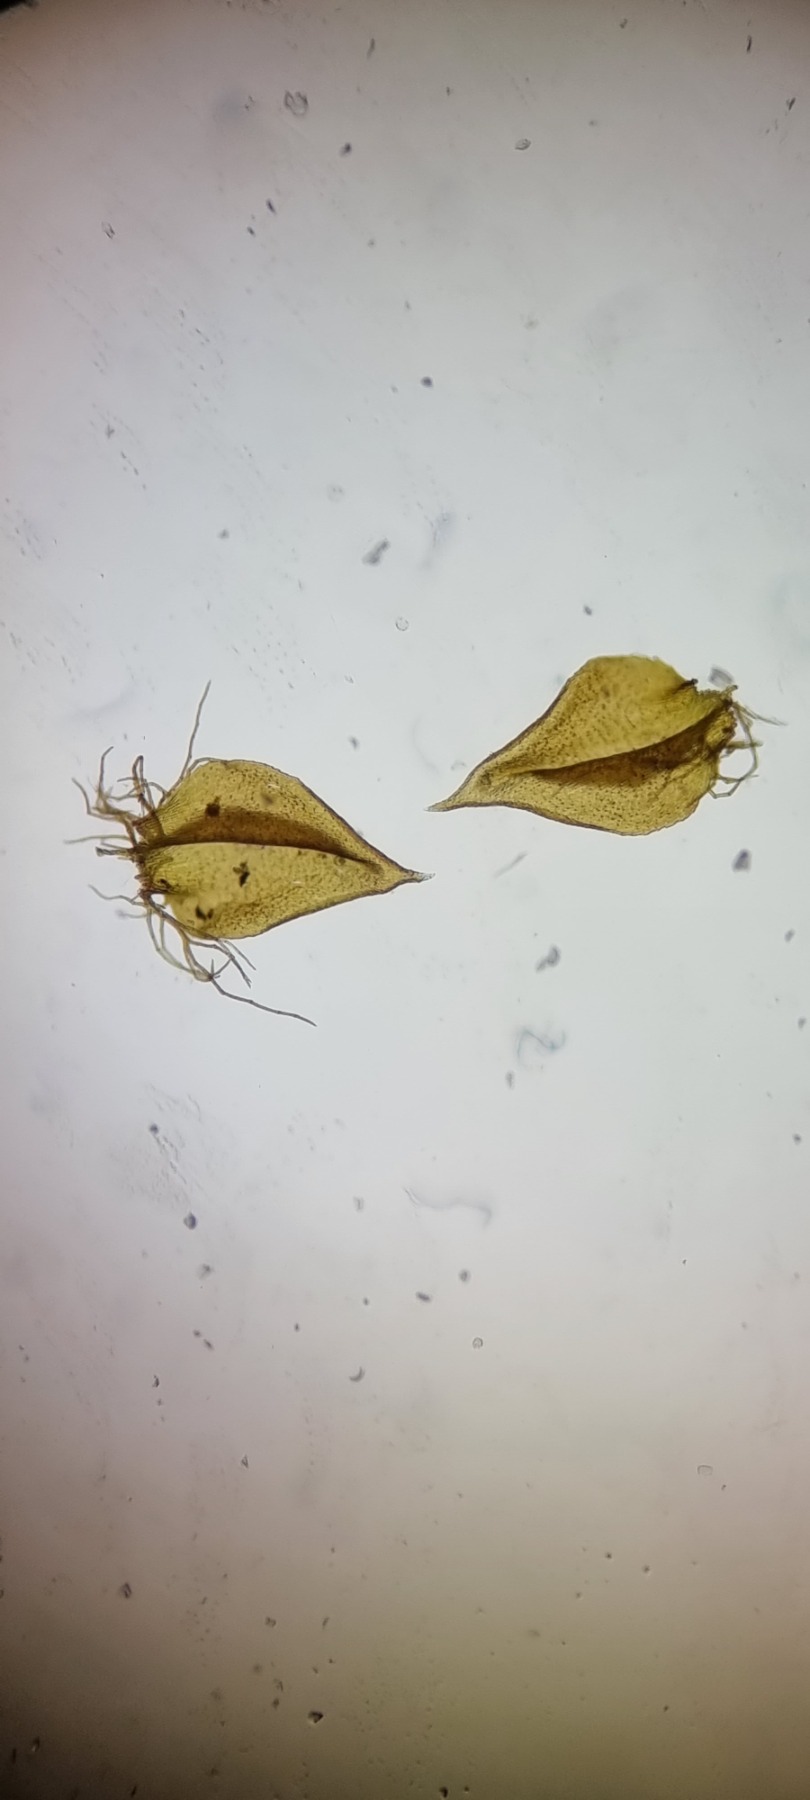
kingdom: Plantae
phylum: Bryophyta
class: Bryopsida
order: Hypnales
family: Helodiaceae
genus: Helodium
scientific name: Helodium blandowii
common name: Kær-gyldenmos
